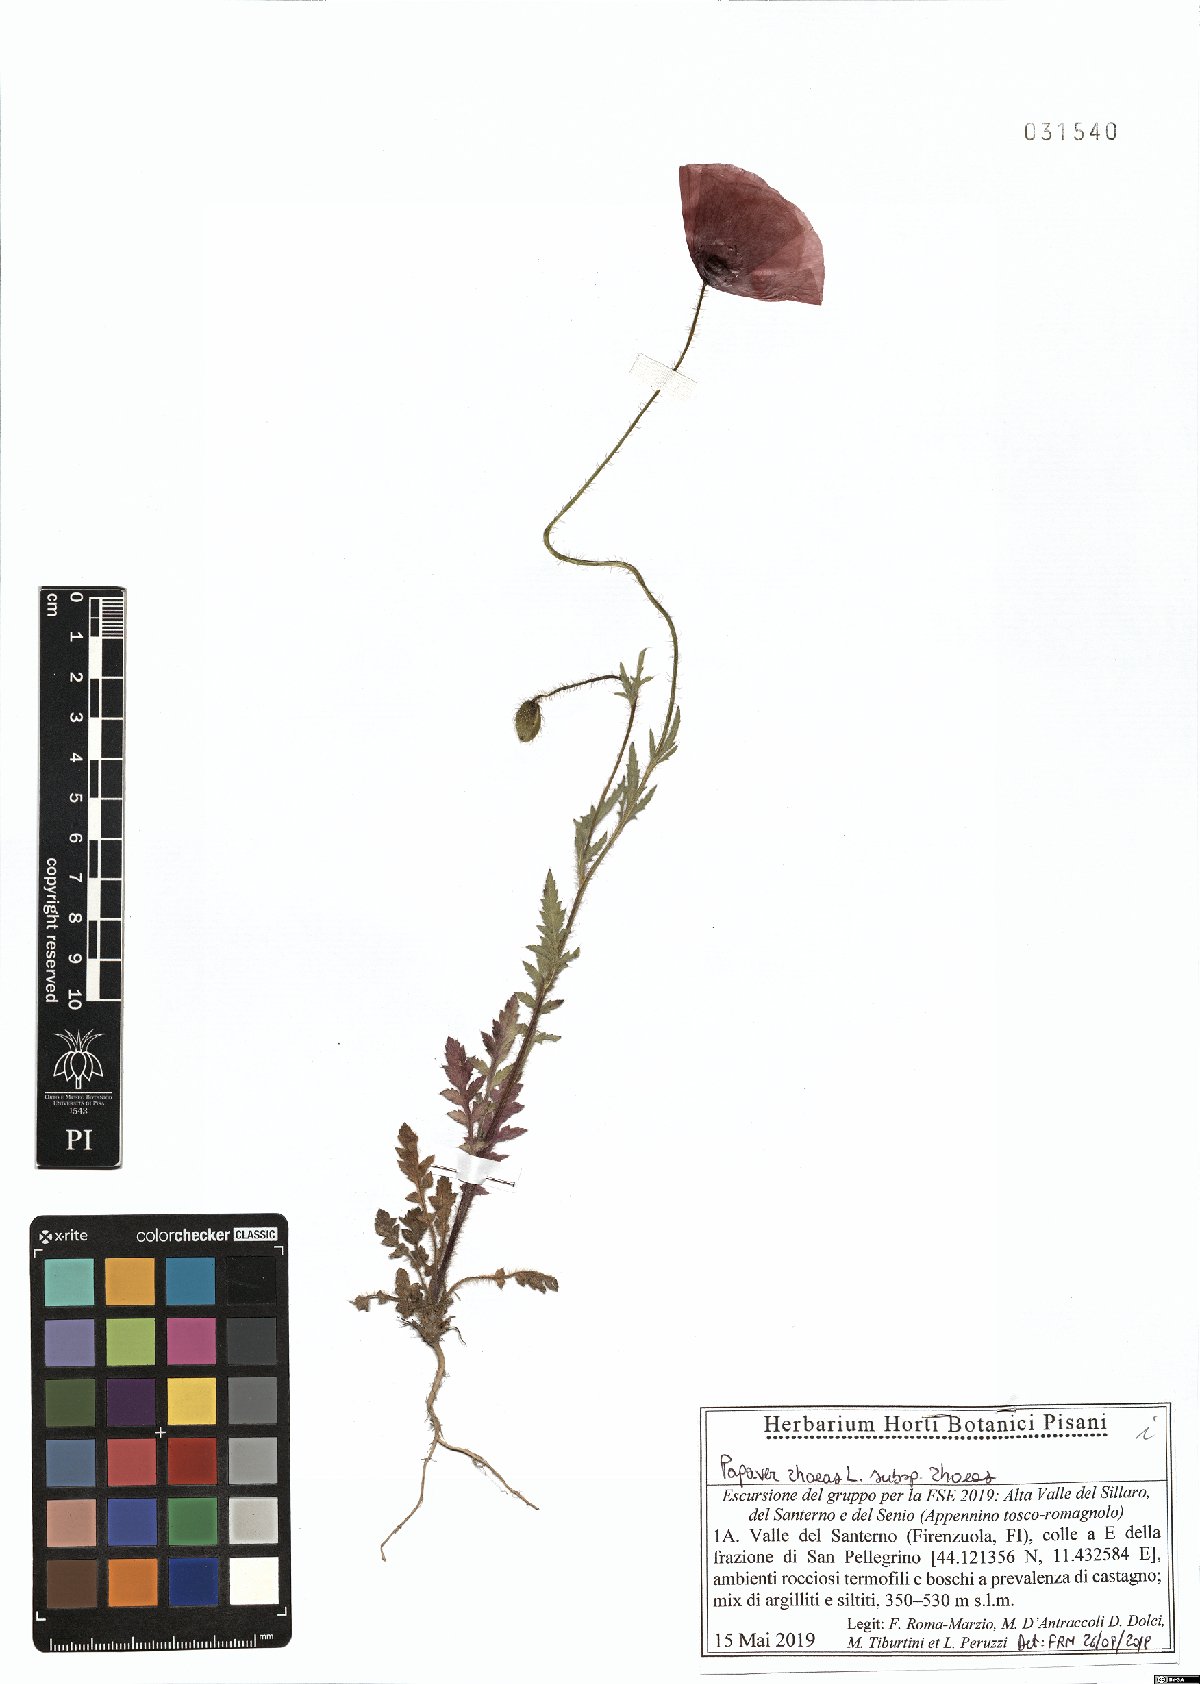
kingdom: Plantae
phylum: Tracheophyta
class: Magnoliopsida
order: Ranunculales
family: Papaveraceae
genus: Papaver
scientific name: Papaver rhoeas
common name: Corn poppy
